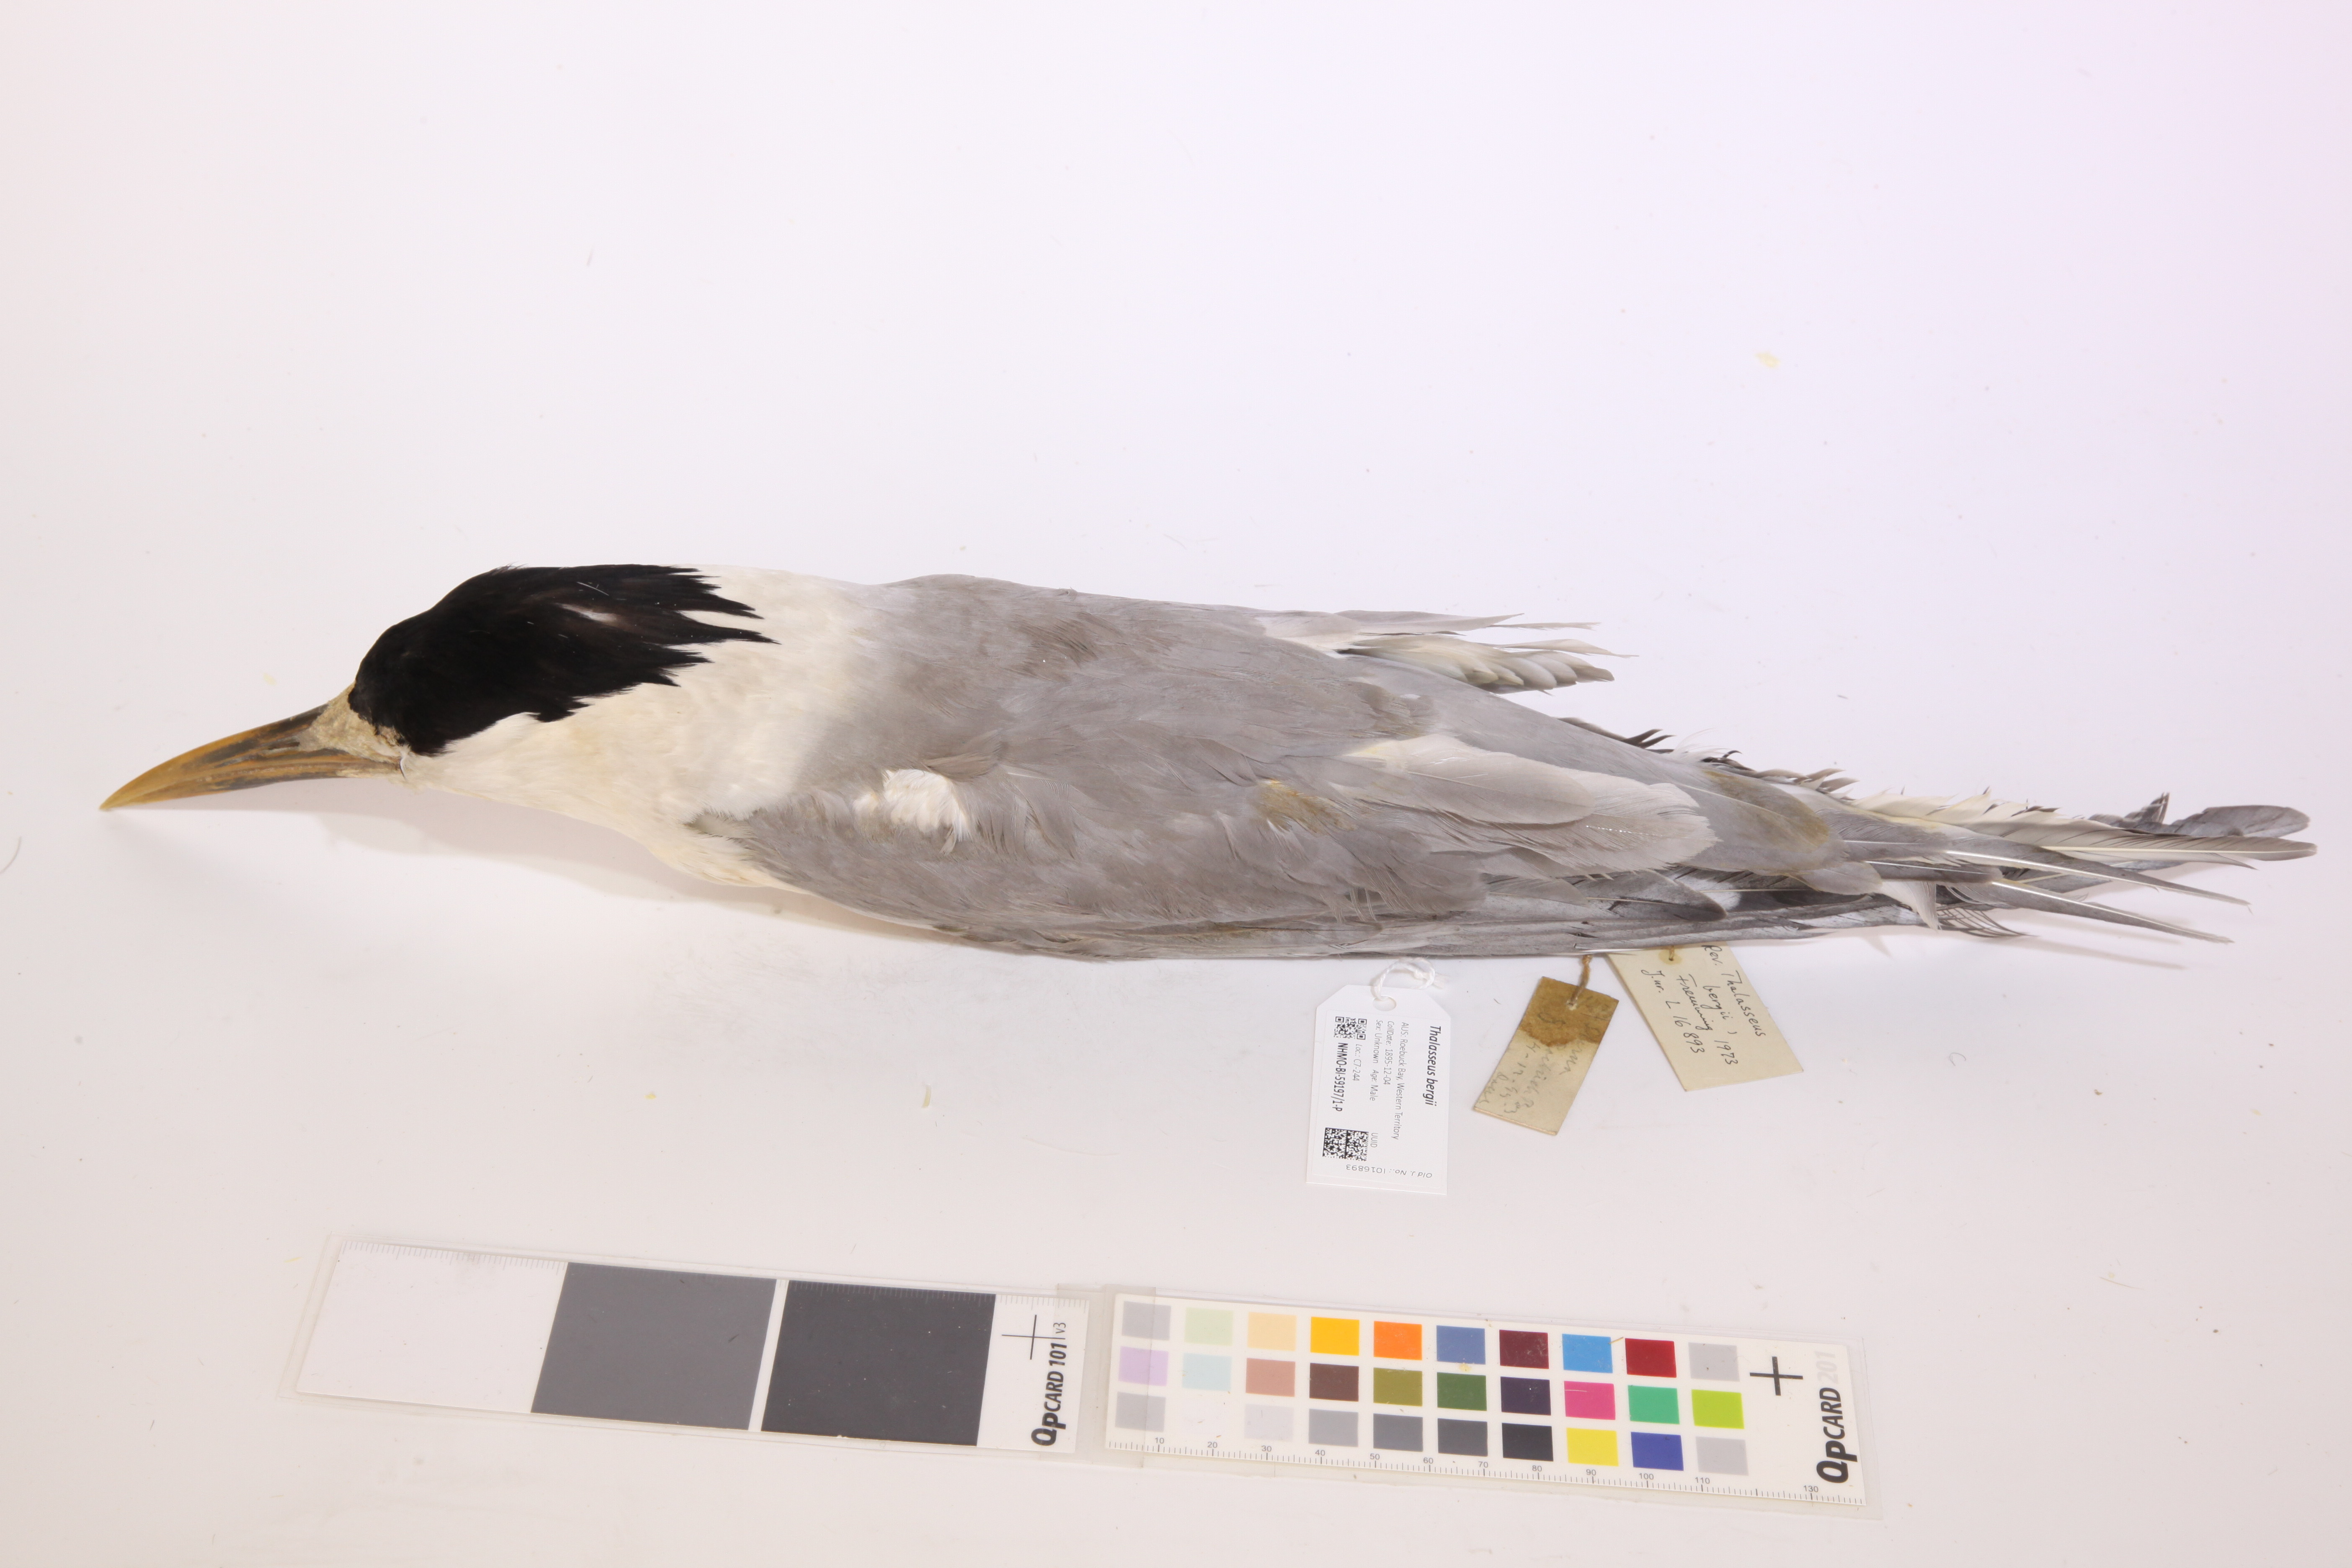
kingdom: Animalia
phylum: Chordata
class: Aves
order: Charadriiformes
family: Laridae
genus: Thalasseus
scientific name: Thalasseus bergii
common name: Greater crested tern
